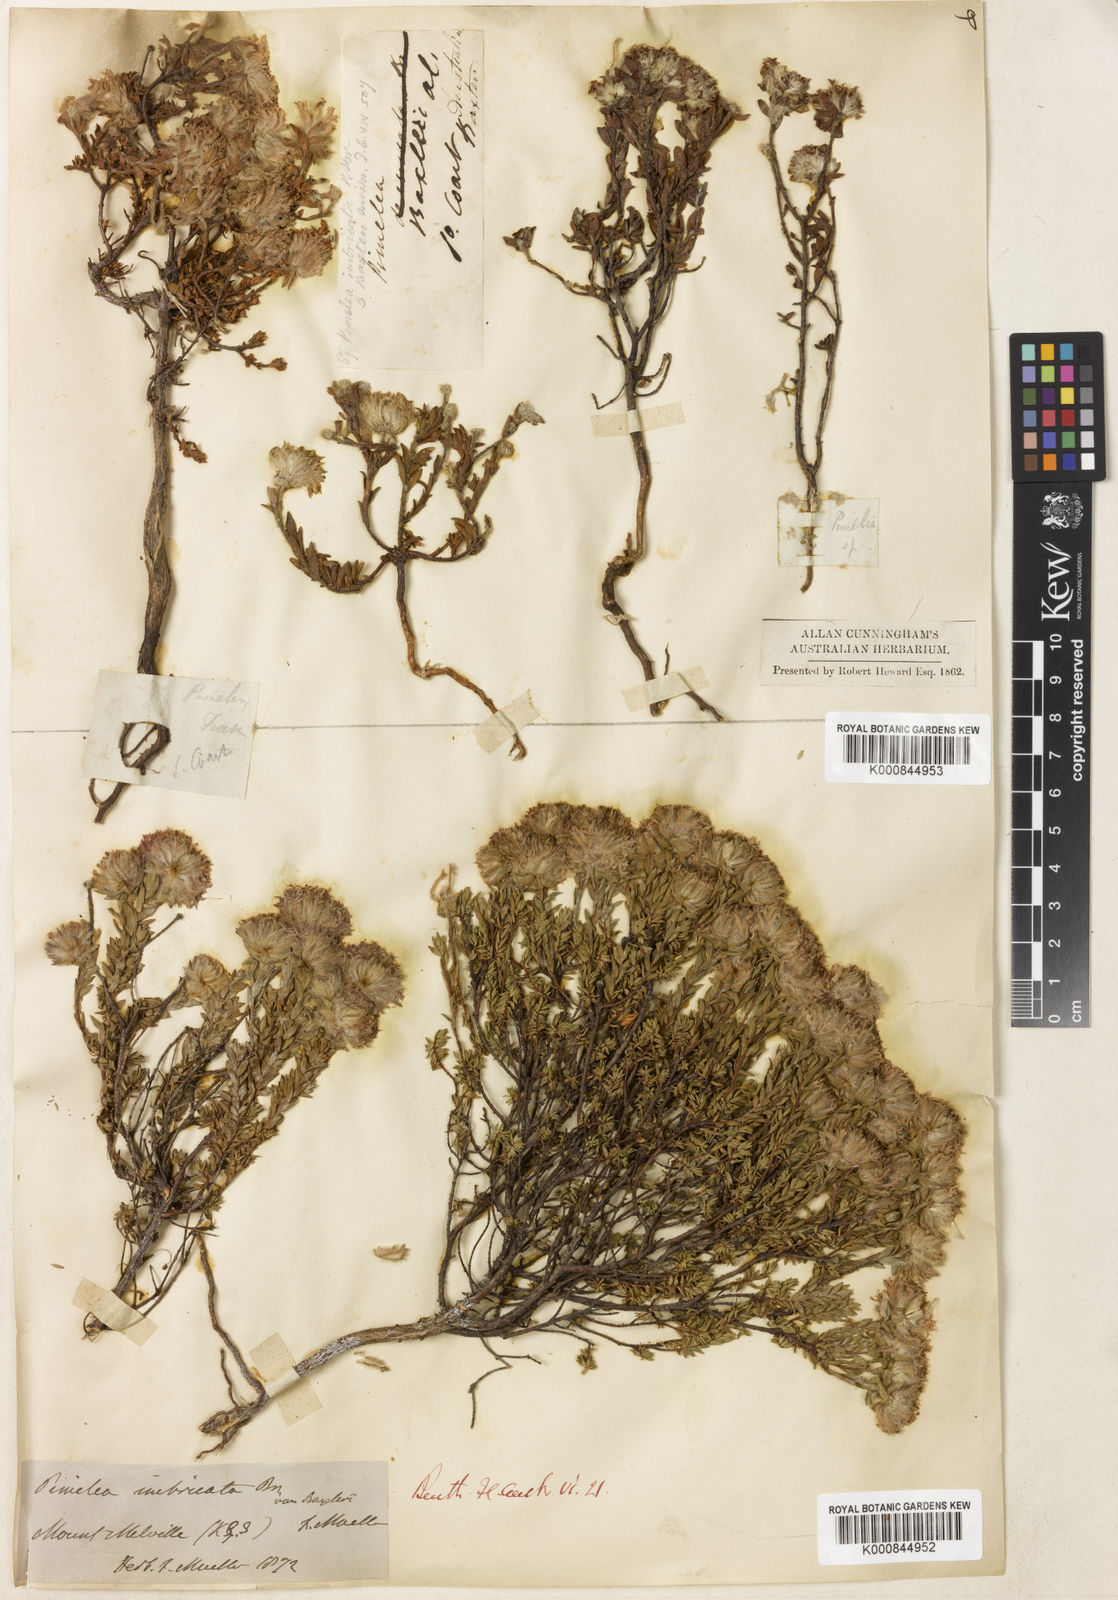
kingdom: Plantae
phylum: Tracheophyta
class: Magnoliopsida
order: Malvales
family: Thymelaeaceae
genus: Pimelea
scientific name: Pimelea imbricata
